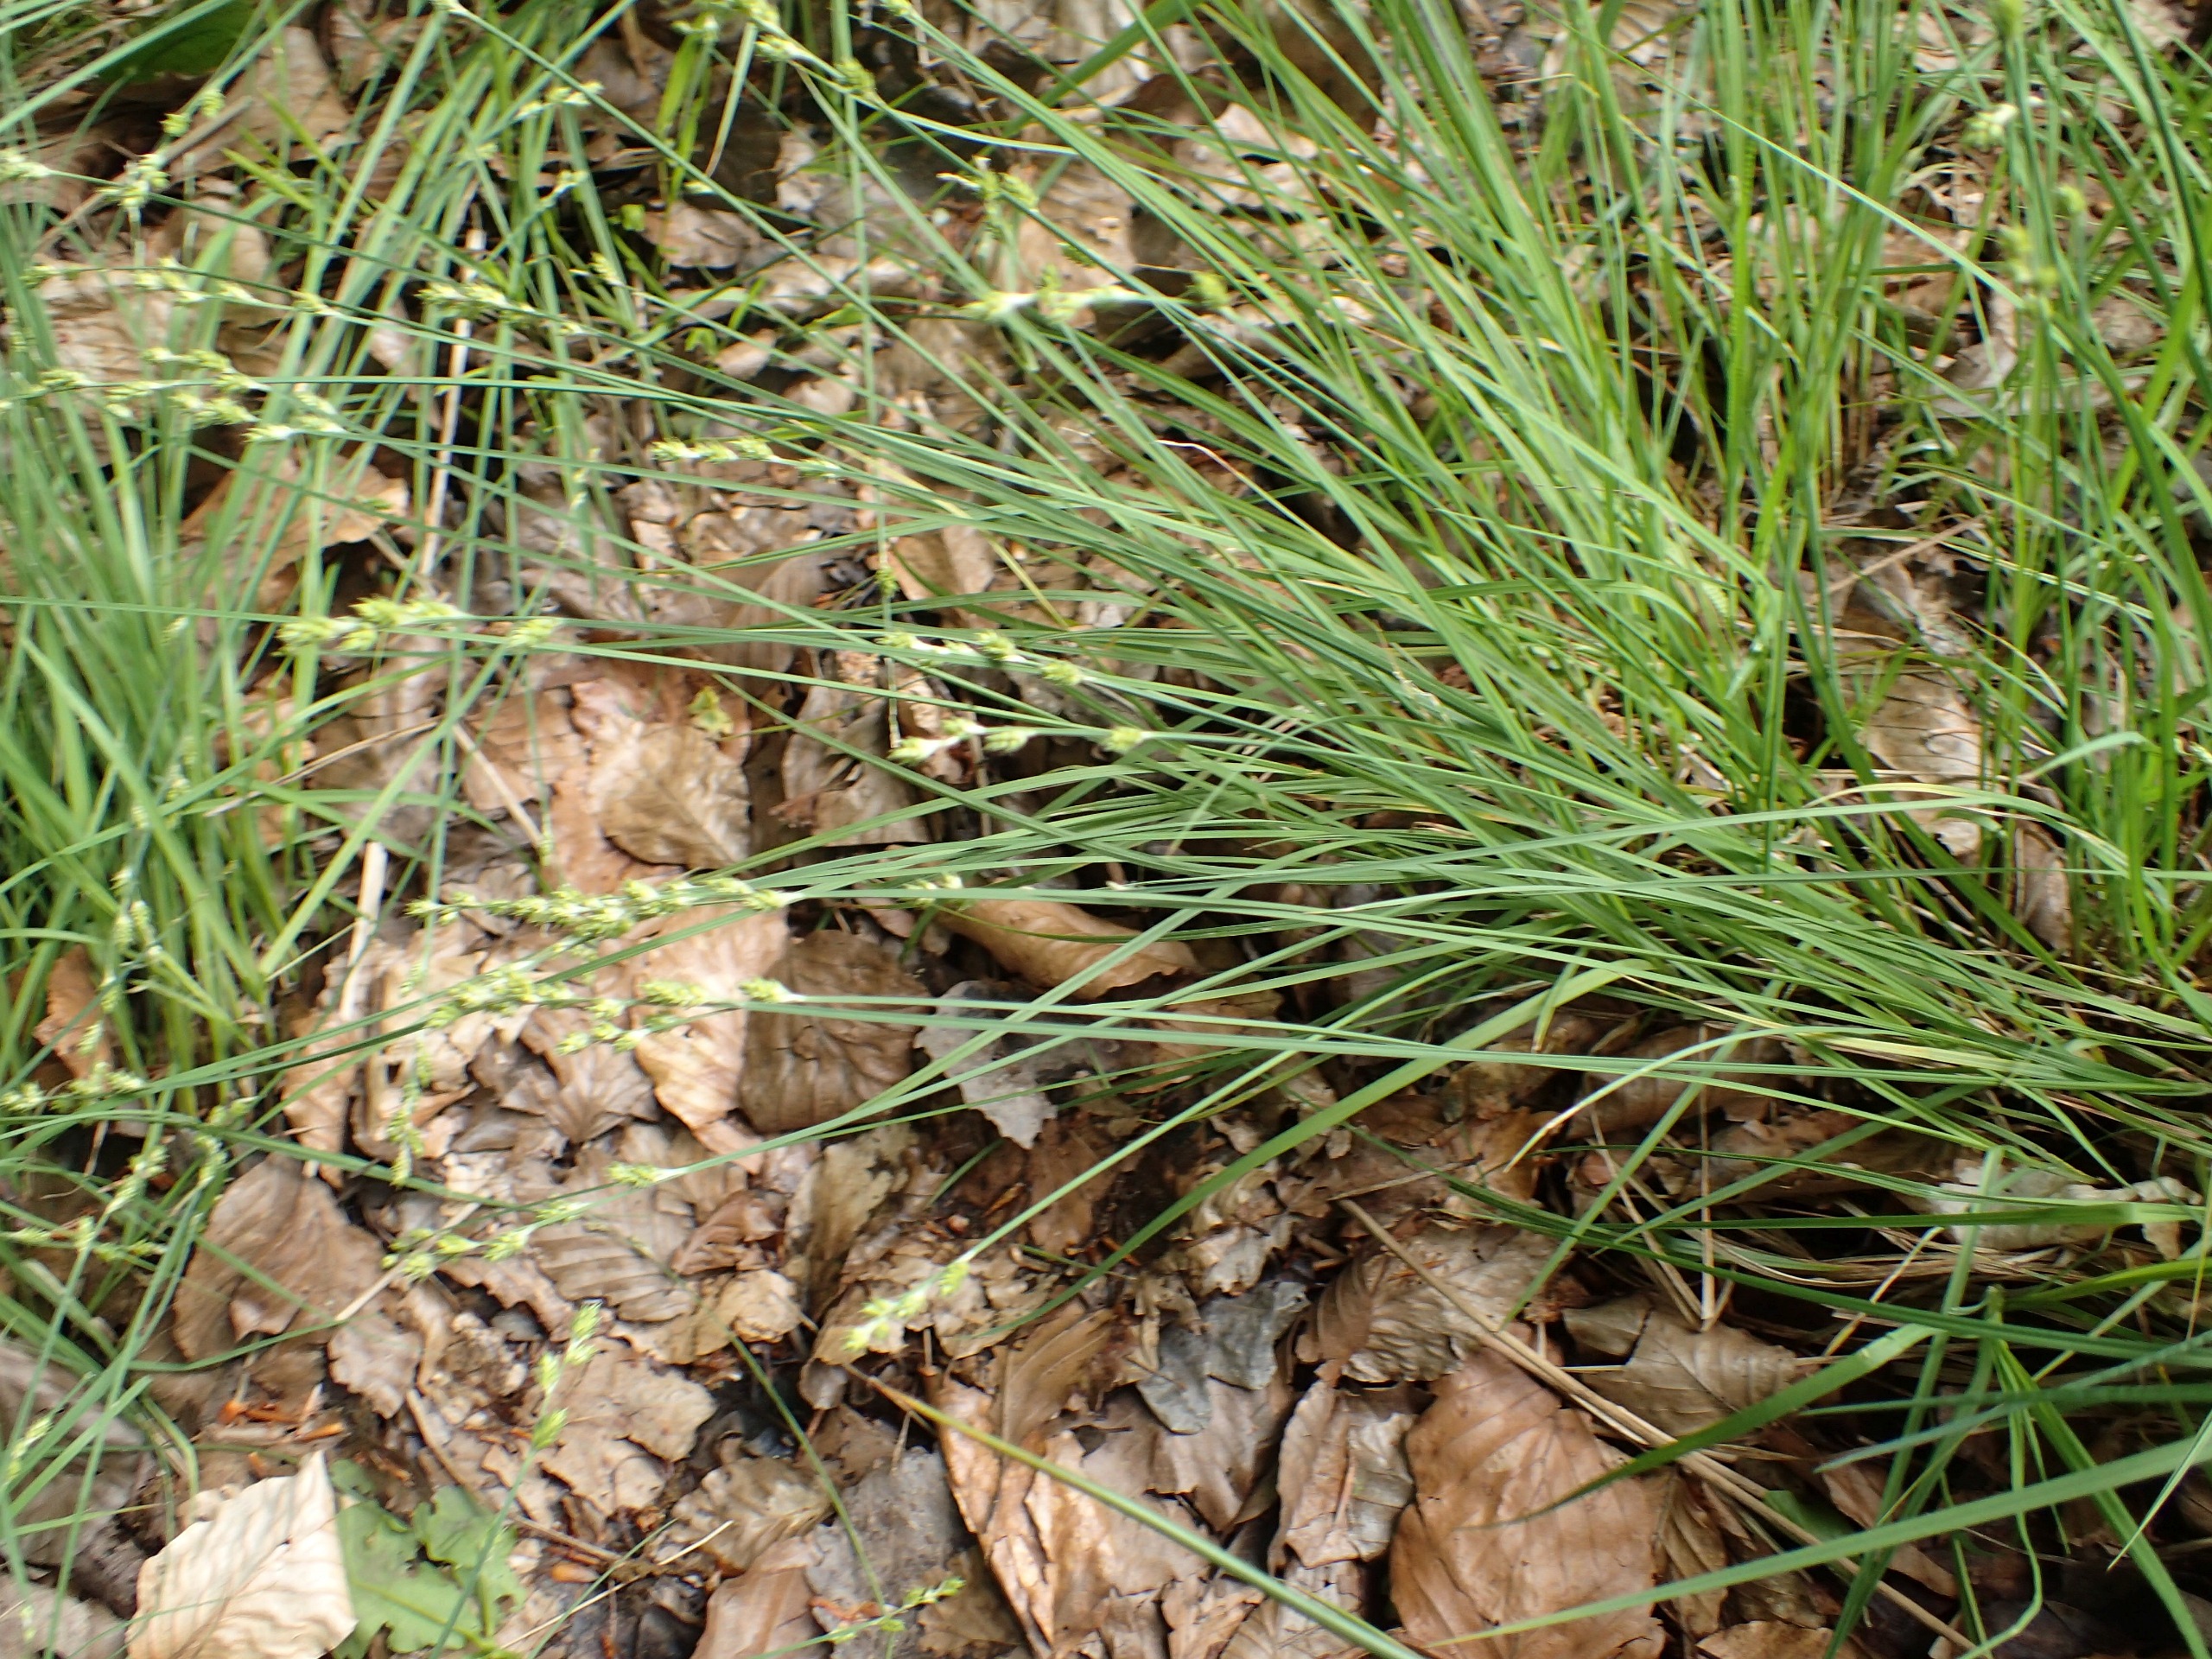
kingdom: Plantae
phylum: Tracheophyta
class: Liliopsida
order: Poales
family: Cyperaceae
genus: Carex
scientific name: Carex canescens
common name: Grå star
